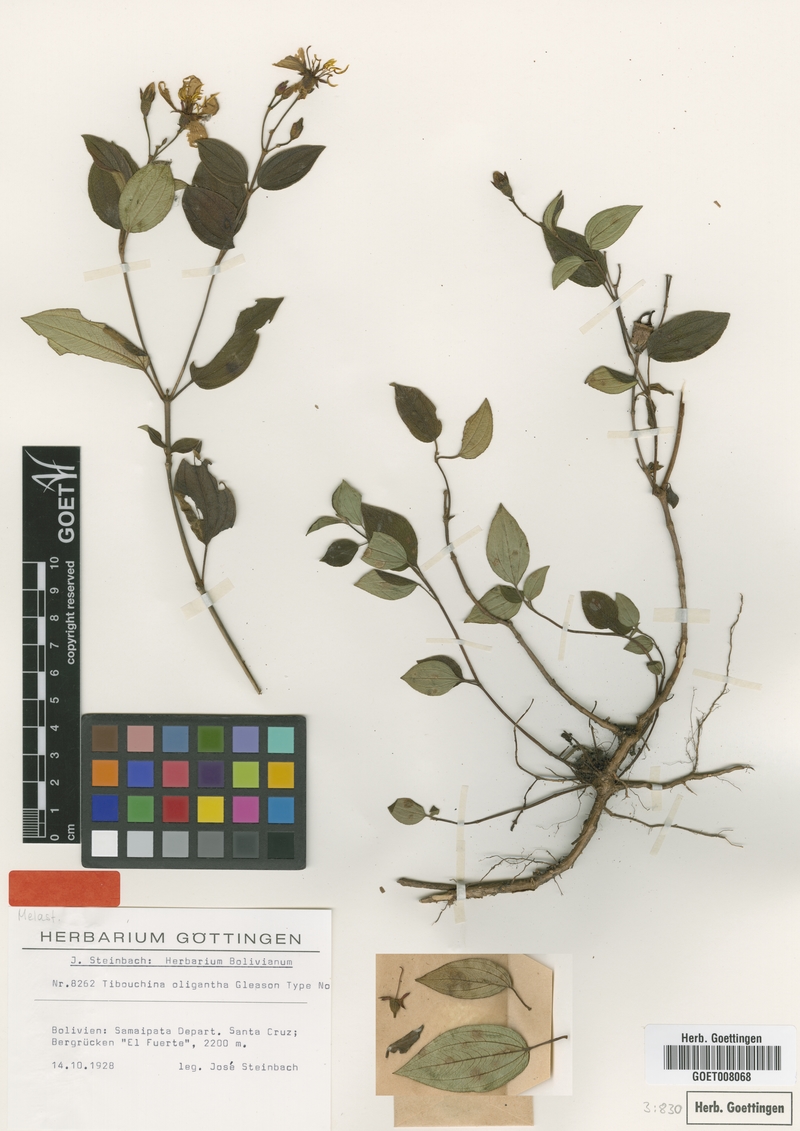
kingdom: Plantae
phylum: Tracheophyta
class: Magnoliopsida
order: Myrtales
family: Melastomataceae
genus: Chaetogastra
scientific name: Chaetogastra oligantha
